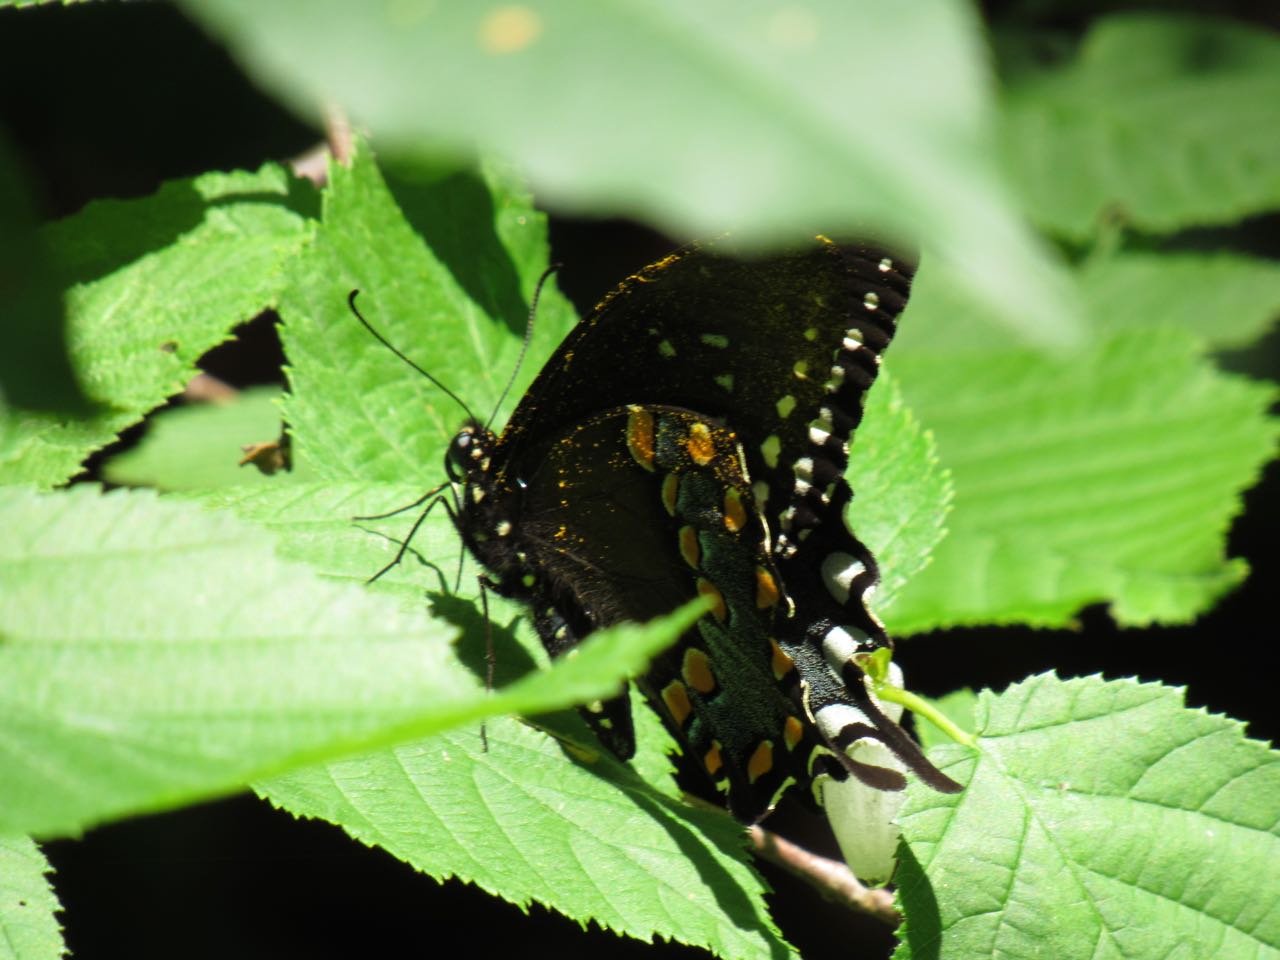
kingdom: Animalia
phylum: Arthropoda
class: Insecta
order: Lepidoptera
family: Papilionidae
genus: Pterourus
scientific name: Pterourus troilus
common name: Spicebush Swallowtail
